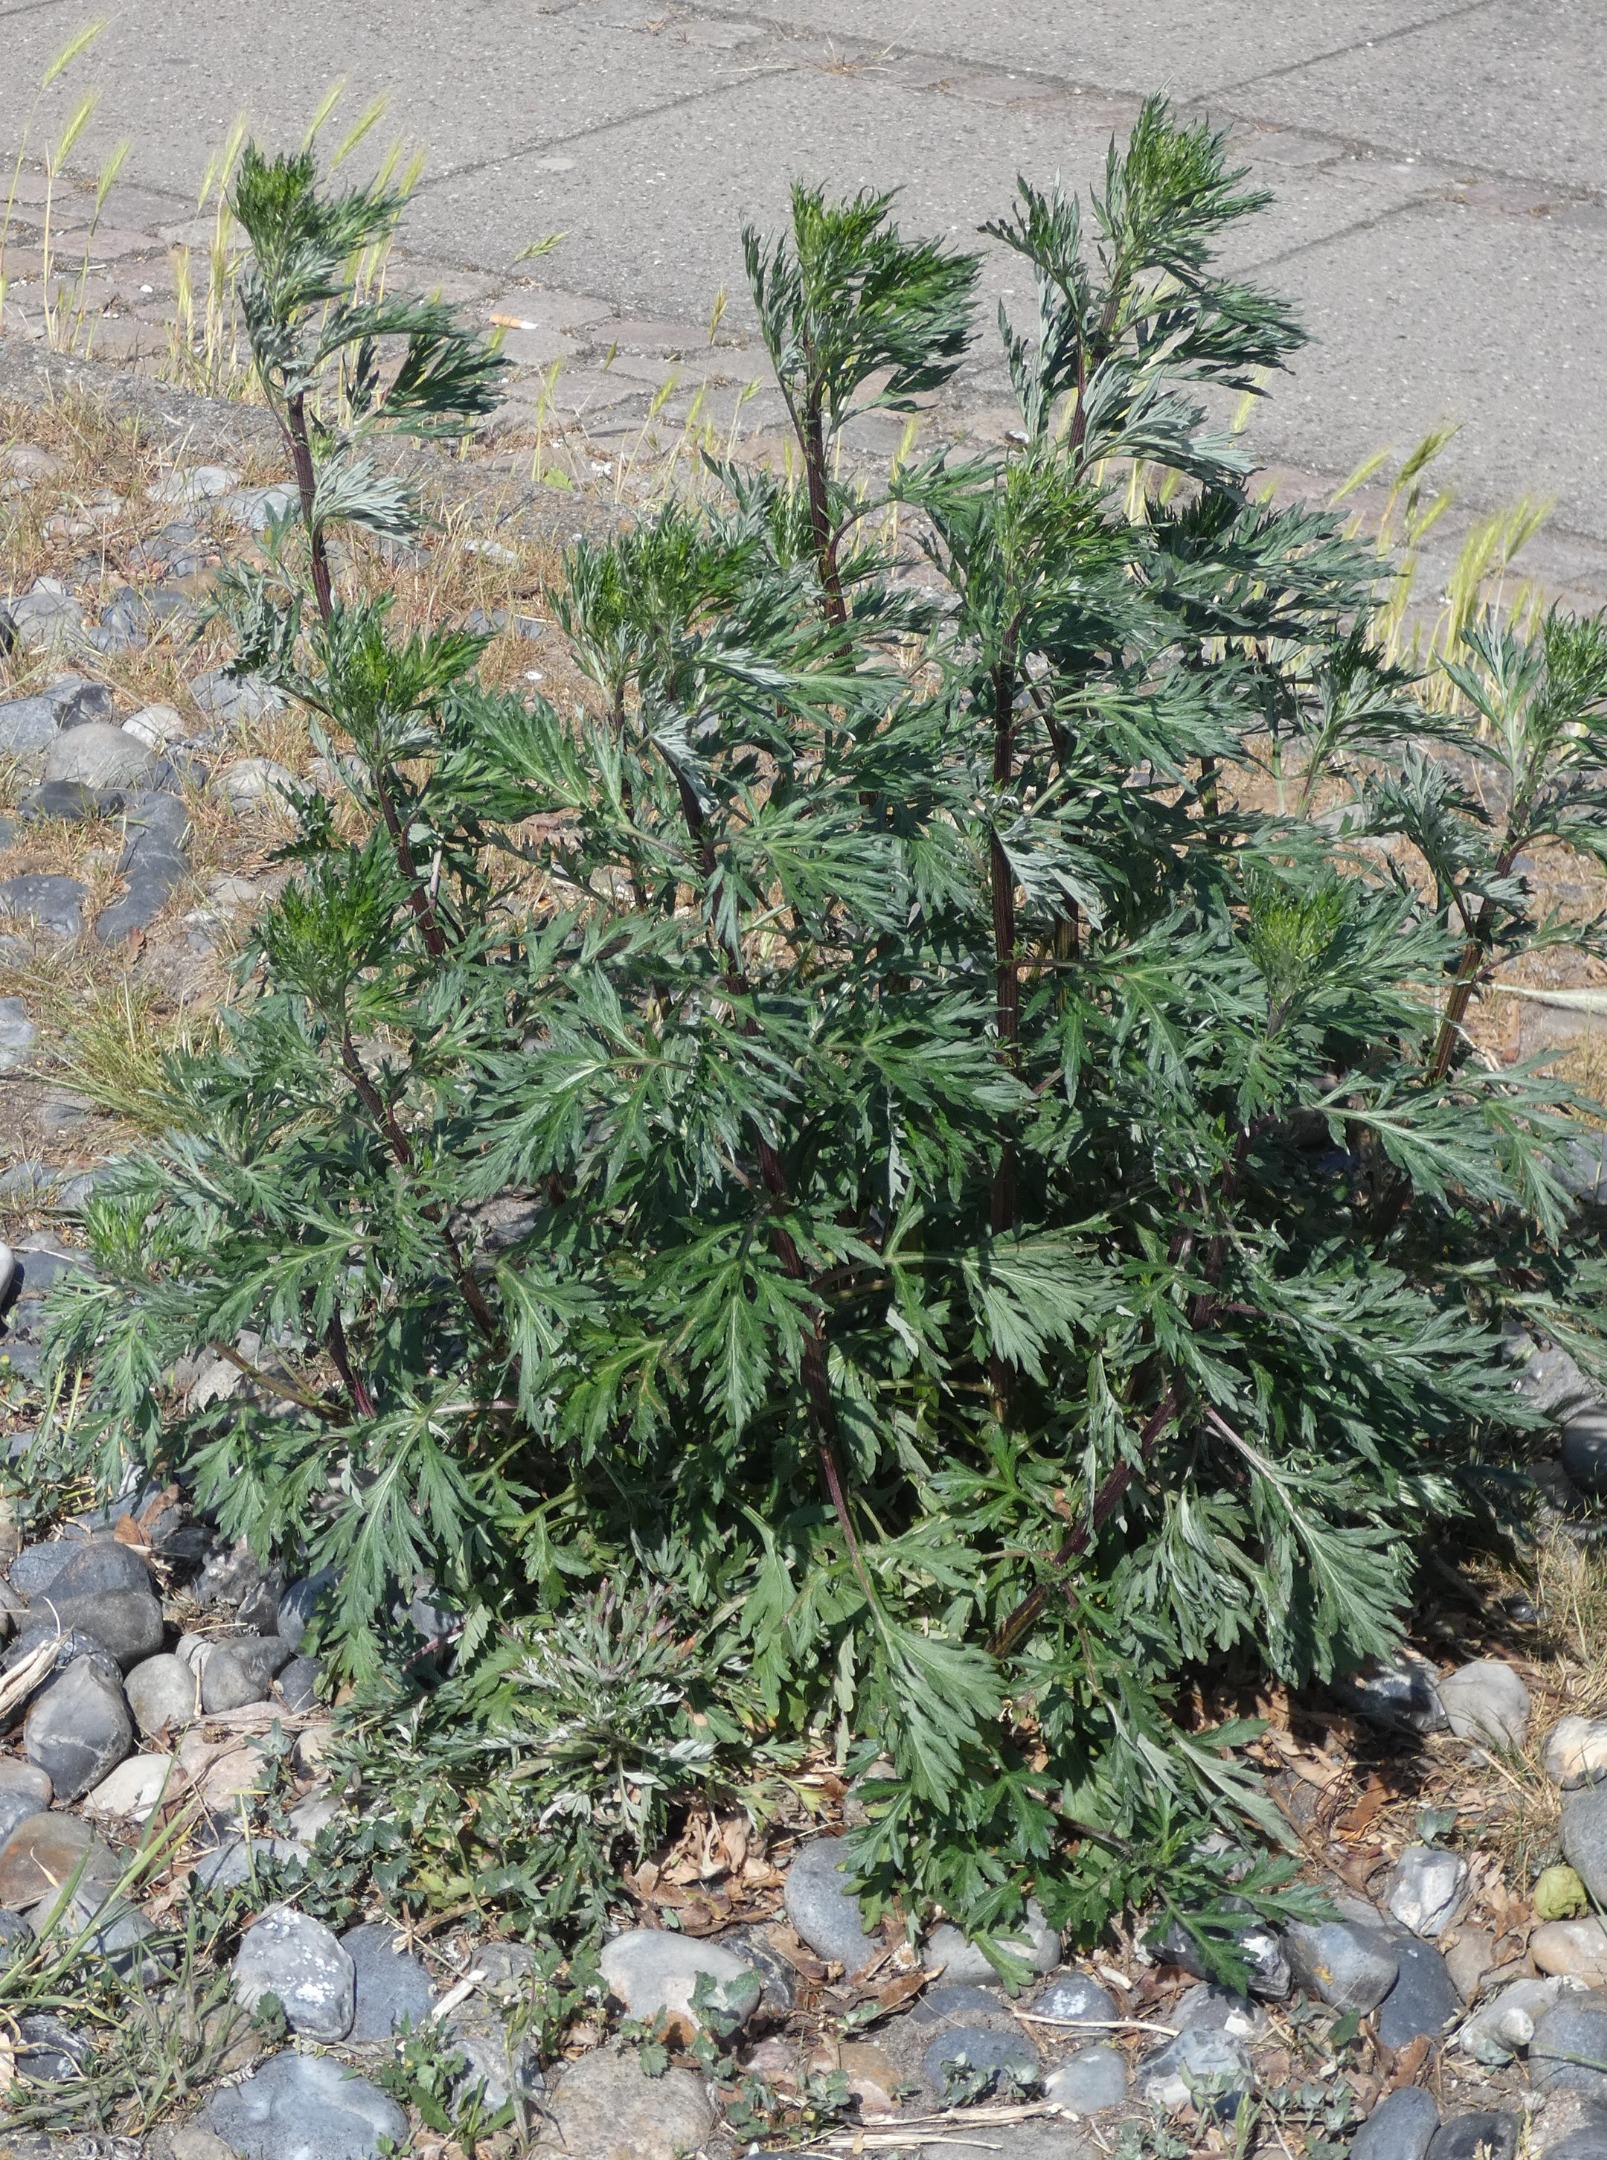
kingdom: Plantae
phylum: Tracheophyta
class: Magnoliopsida
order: Asterales
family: Asteraceae
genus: Artemisia
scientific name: Artemisia vulgaris
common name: Grå-bynke
